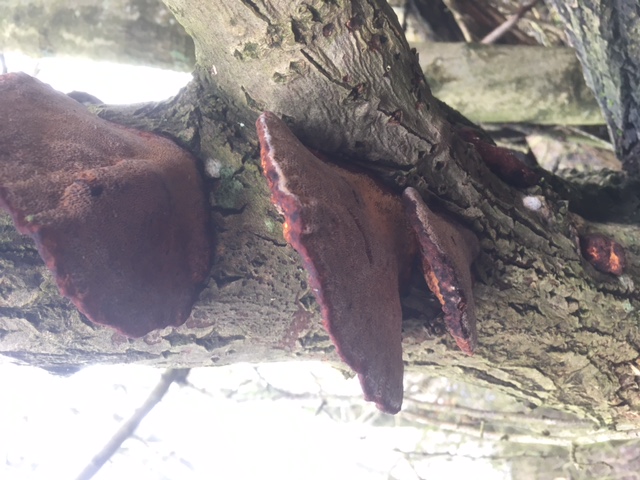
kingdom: Fungi
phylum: Basidiomycota
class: Agaricomycetes
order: Polyporales
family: Polyporaceae
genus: Daedaleopsis
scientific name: Daedaleopsis confragosa
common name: rødmende læderporesvamp
